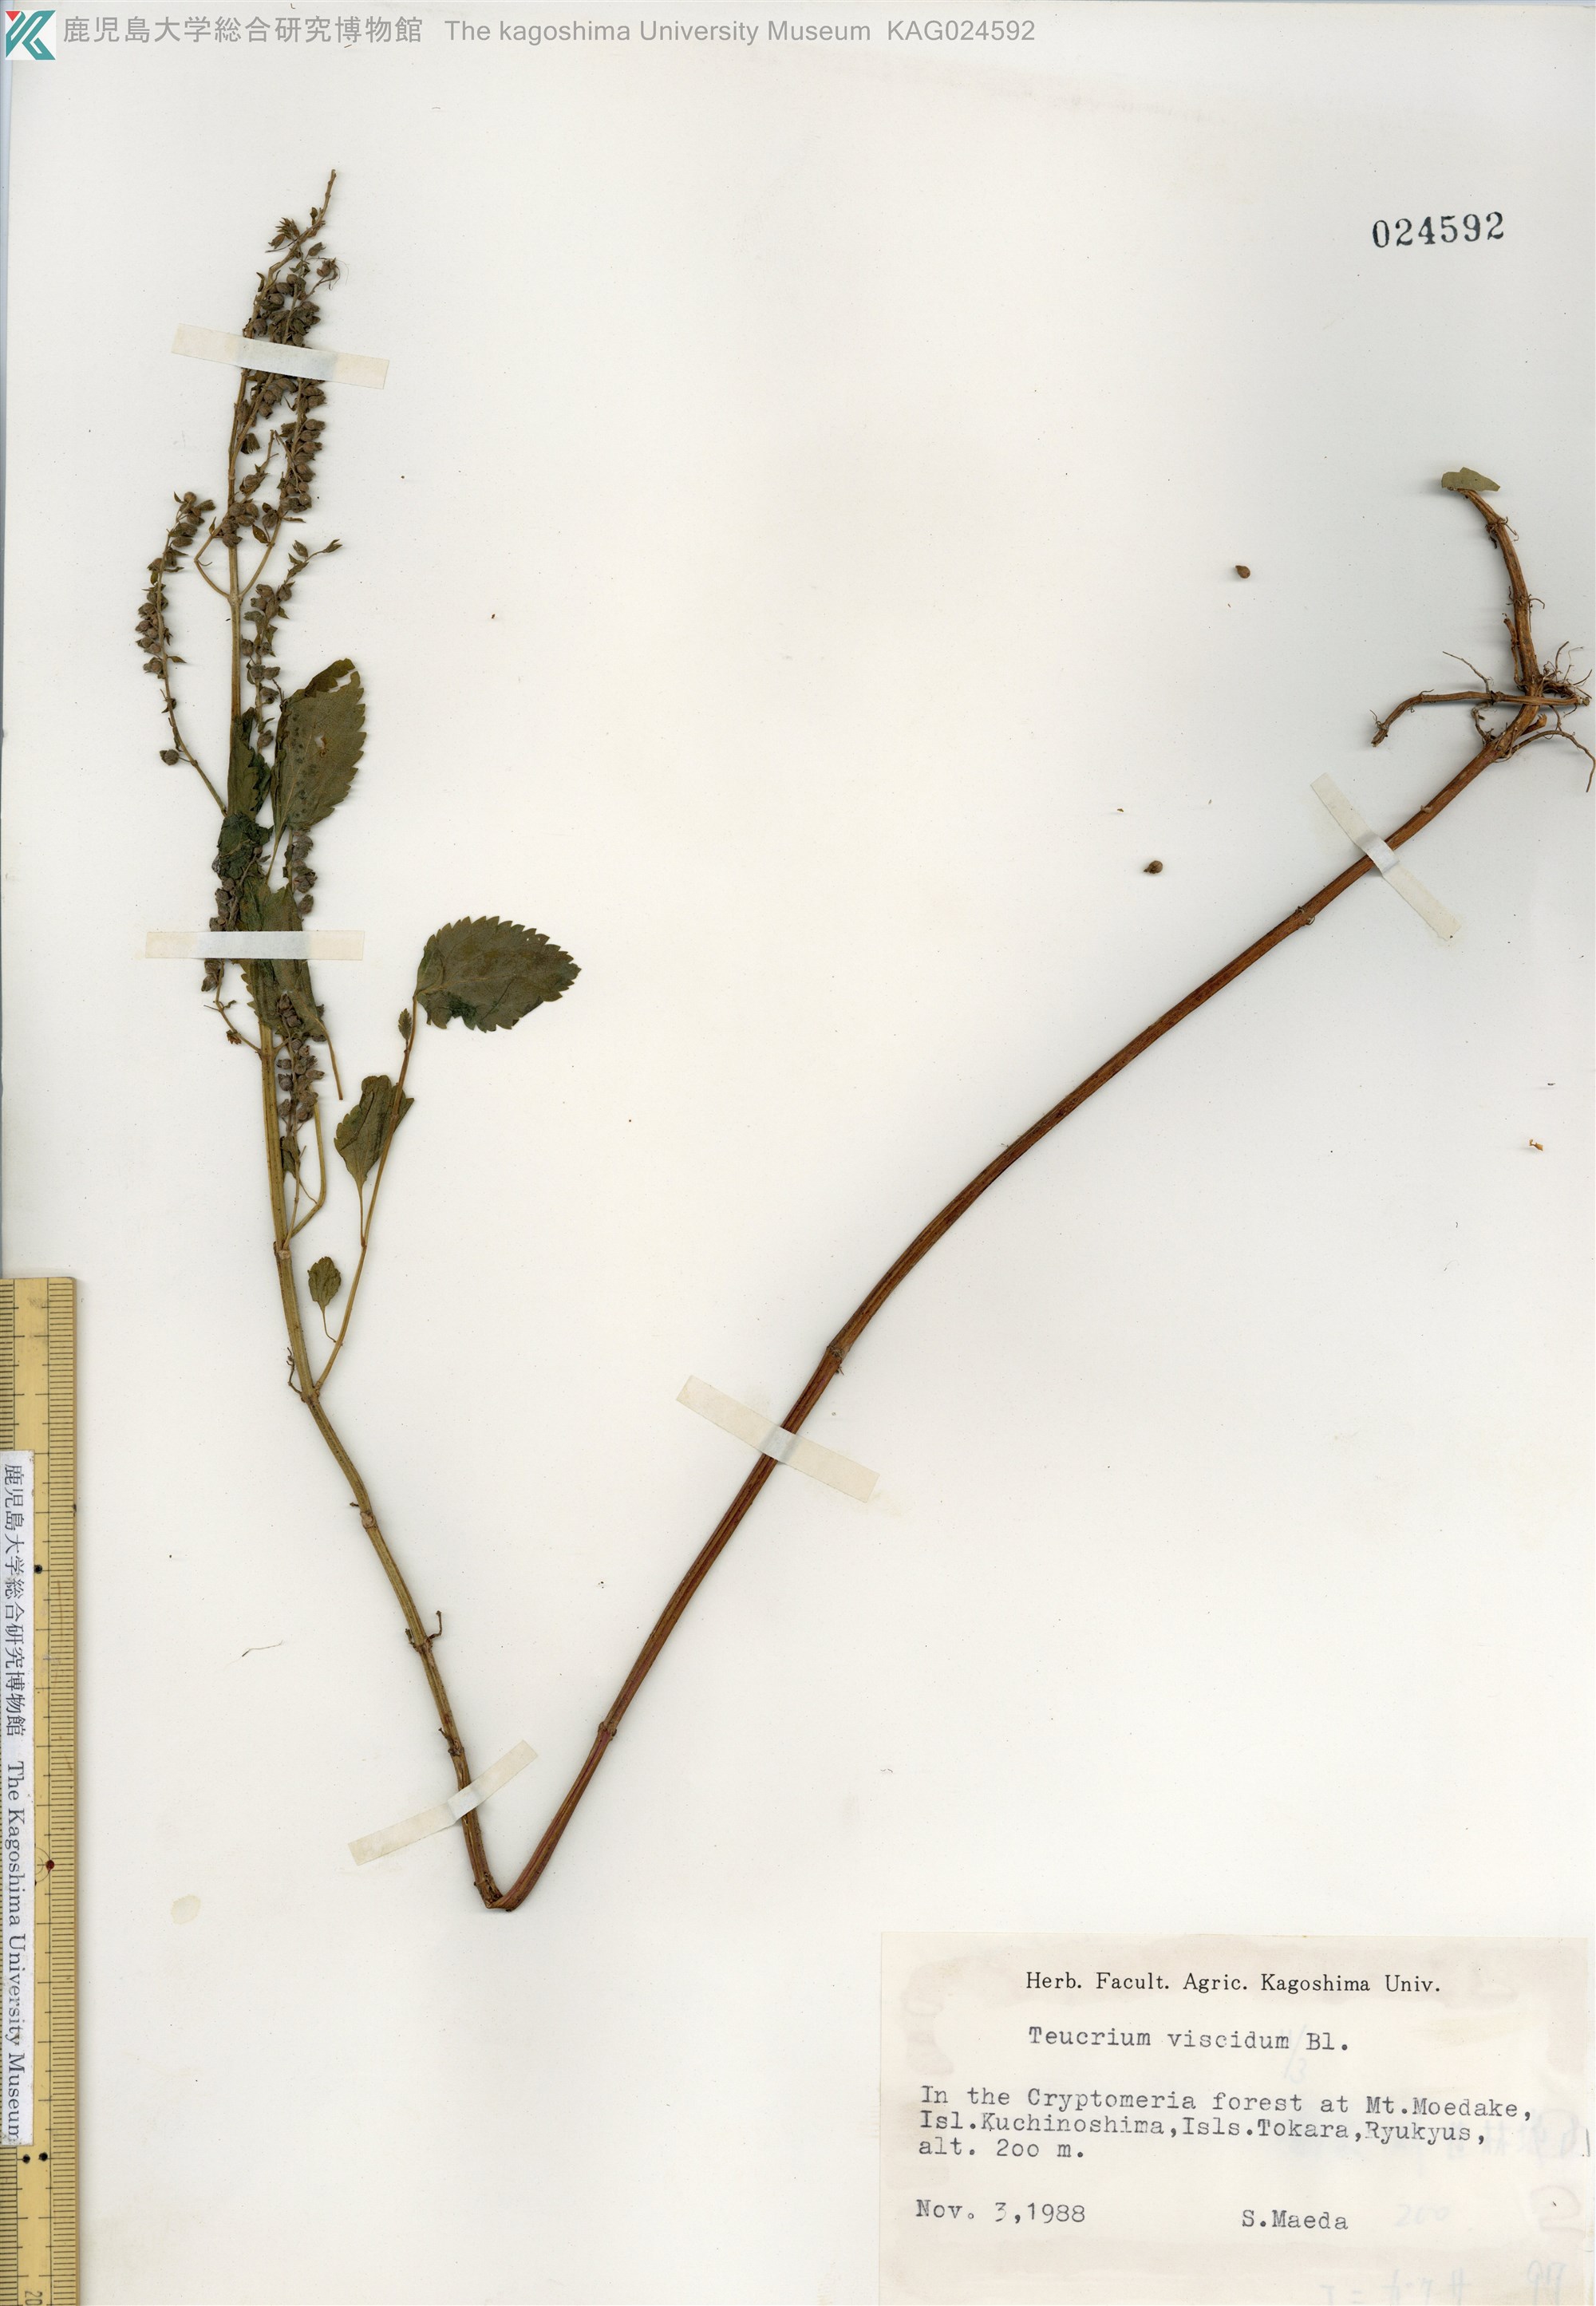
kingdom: Plantae
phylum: Tracheophyta
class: Magnoliopsida
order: Lamiales
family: Lamiaceae
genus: Teucrium
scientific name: Teucrium viscidum
